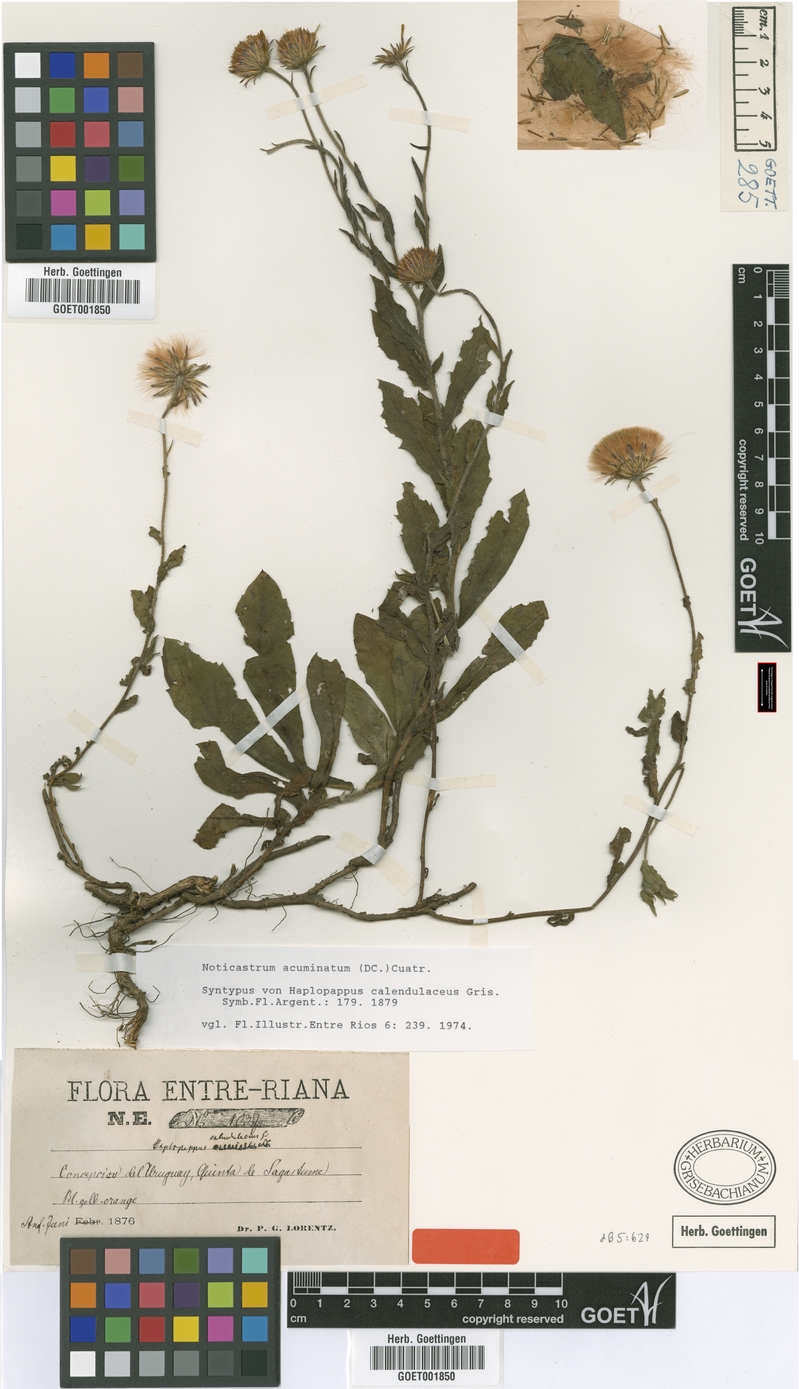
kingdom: Plantae
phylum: Tracheophyta
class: Magnoliopsida
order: Asterales
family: Asteraceae
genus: Noticastrum
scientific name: Noticastrum acuminatum
